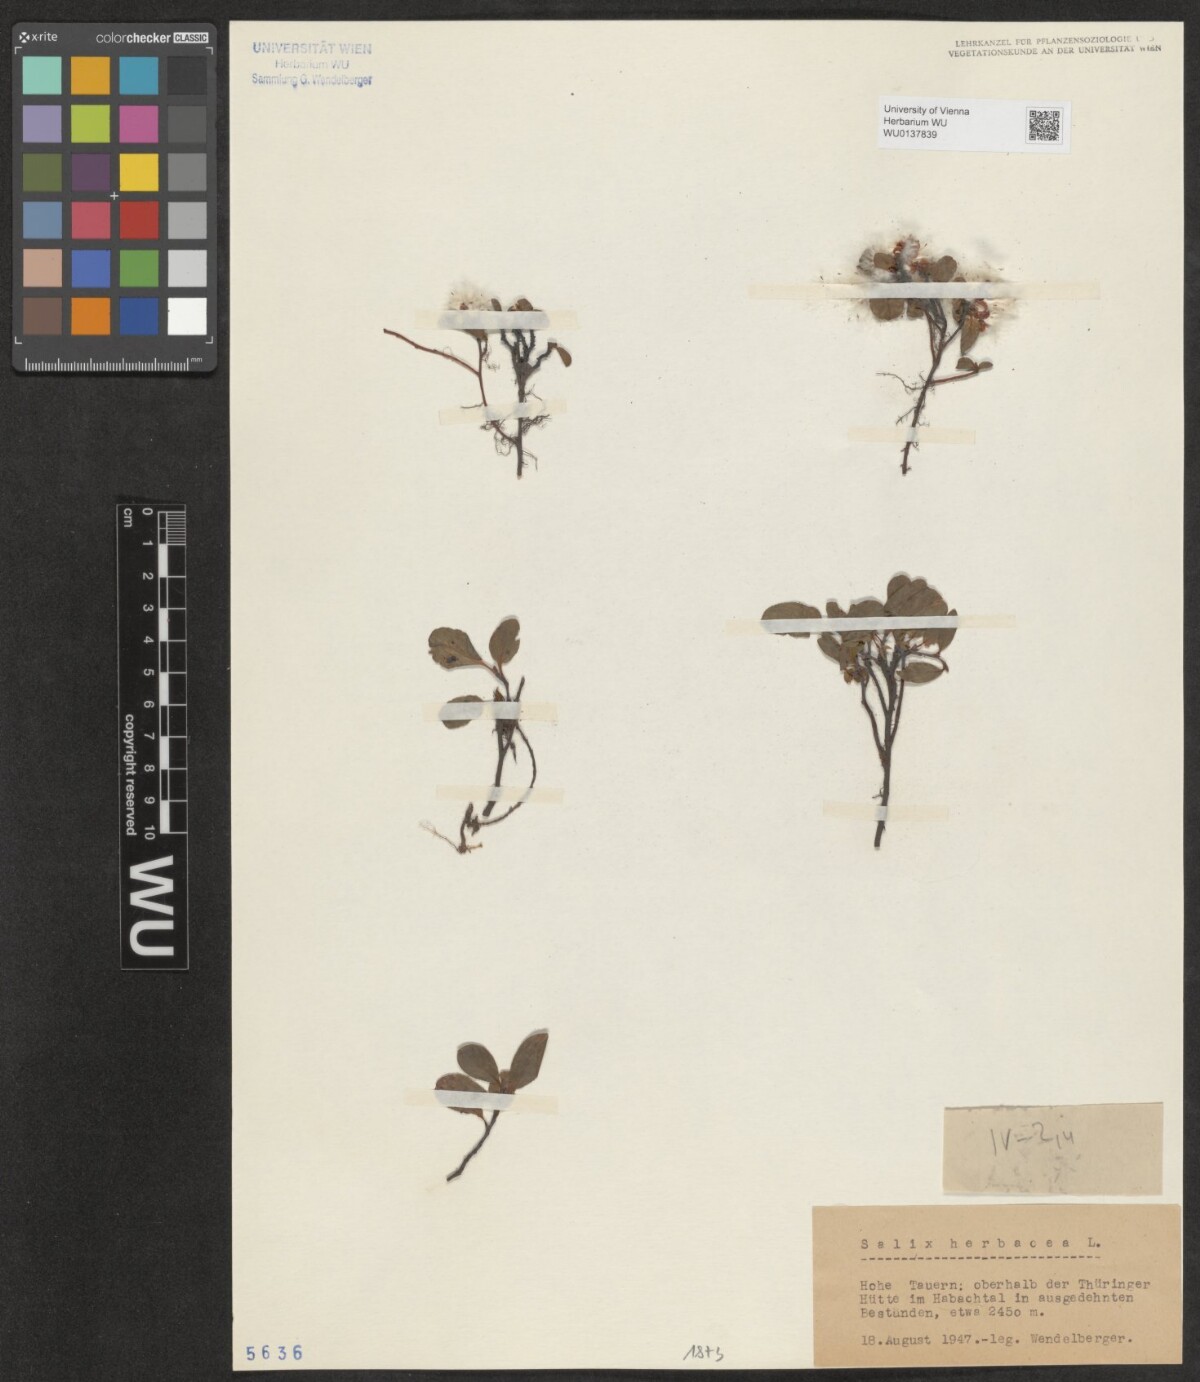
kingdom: Plantae
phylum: Tracheophyta
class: Magnoliopsida
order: Malpighiales
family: Salicaceae
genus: Salix
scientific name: Salix herbacea
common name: Dwarf willow
